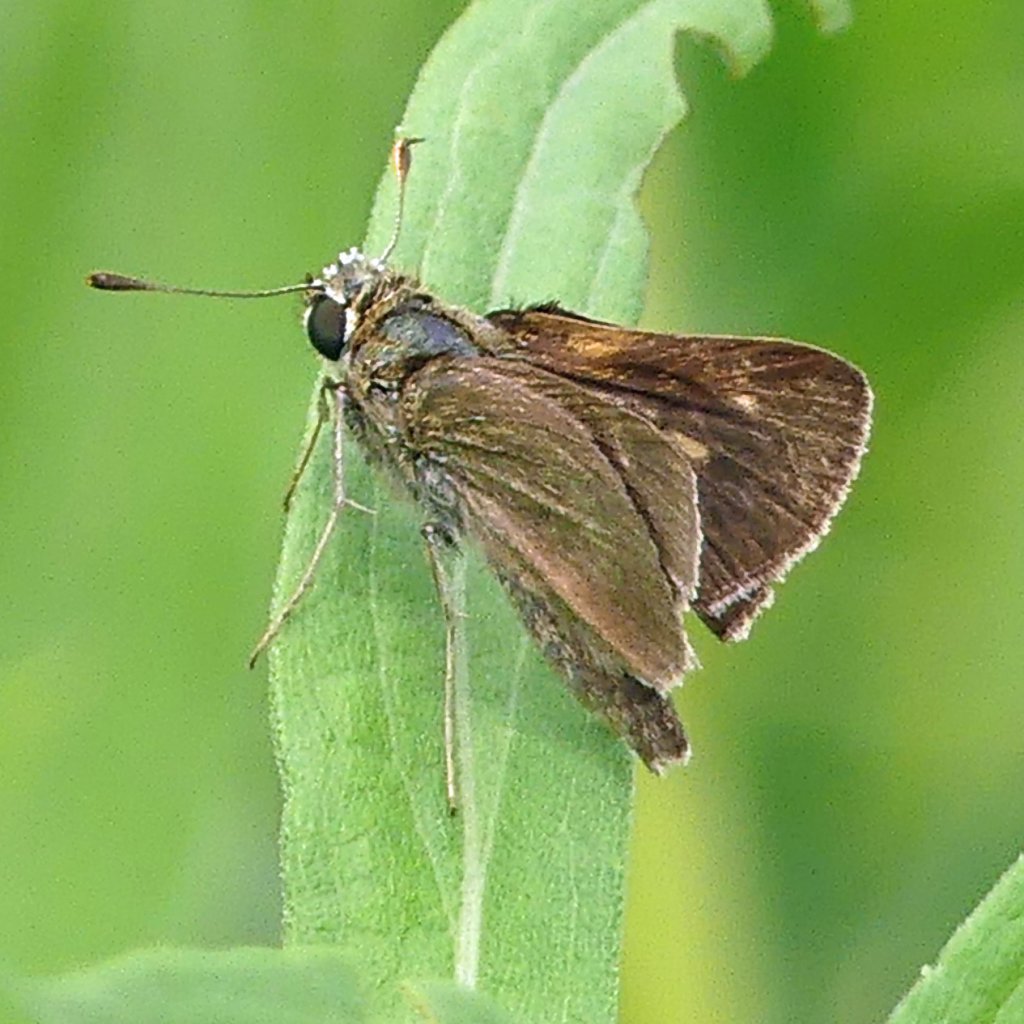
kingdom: Animalia
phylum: Arthropoda
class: Insecta
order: Lepidoptera
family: Hesperiidae
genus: Polites
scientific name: Polites egeremet
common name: Northern Broken-Dash
